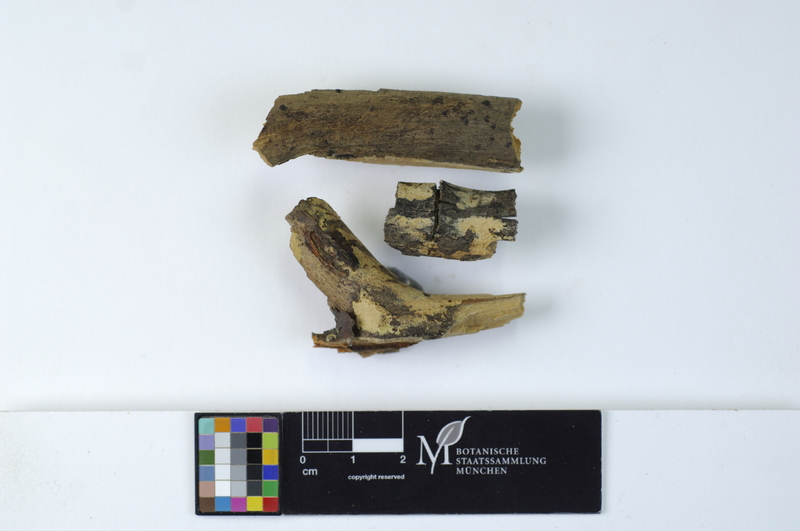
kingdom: Plantae
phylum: Tracheophyta
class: Pinopsida
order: Pinales
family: Pinaceae
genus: Pinus
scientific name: Pinus sylvestris
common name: Scots pine
